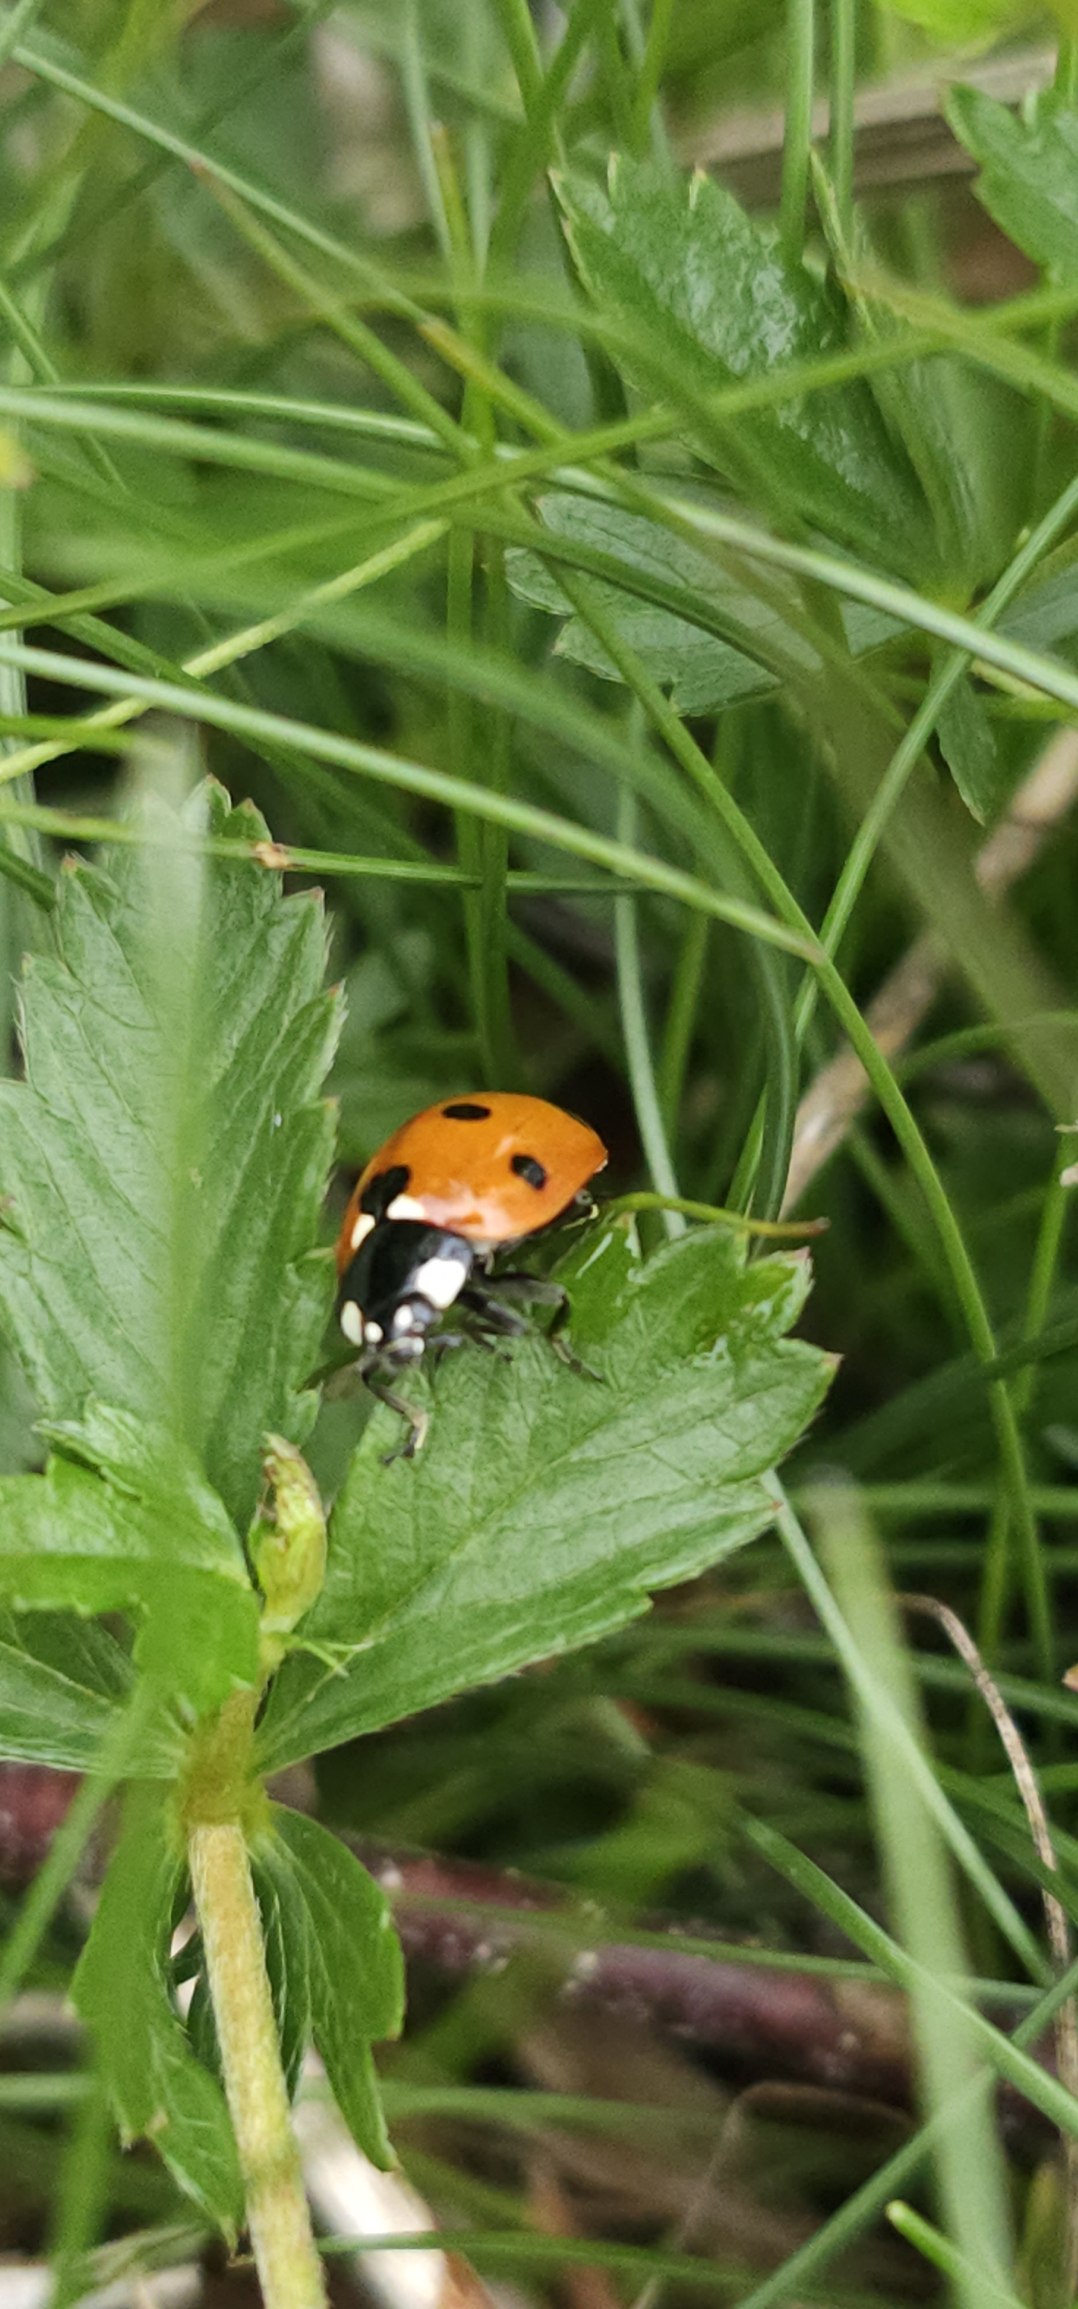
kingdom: Animalia
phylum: Arthropoda
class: Insecta
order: Coleoptera
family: Coccinellidae
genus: Coccinella
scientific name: Coccinella septempunctata
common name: Syvplettet mariehøne
